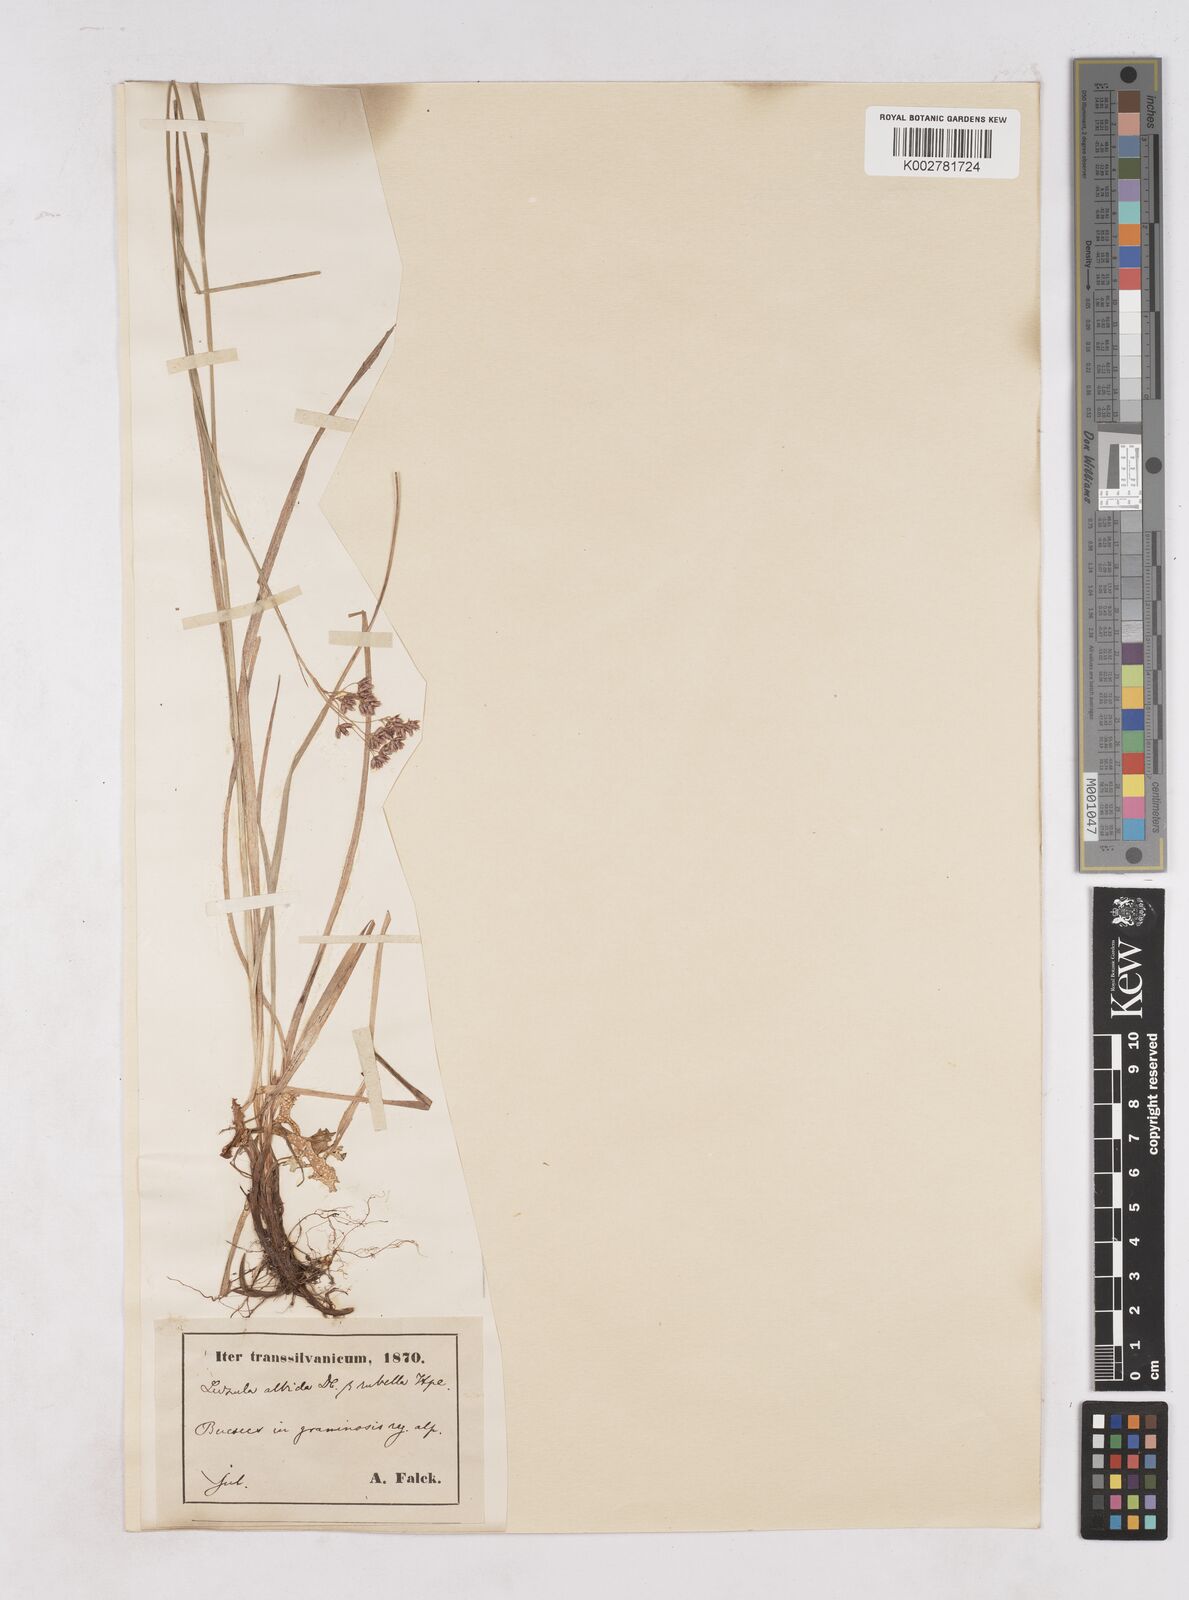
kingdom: Plantae
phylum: Tracheophyta
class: Liliopsida
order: Poales
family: Juncaceae
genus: Luzula
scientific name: Luzula luzuloides
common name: White wood-rush
